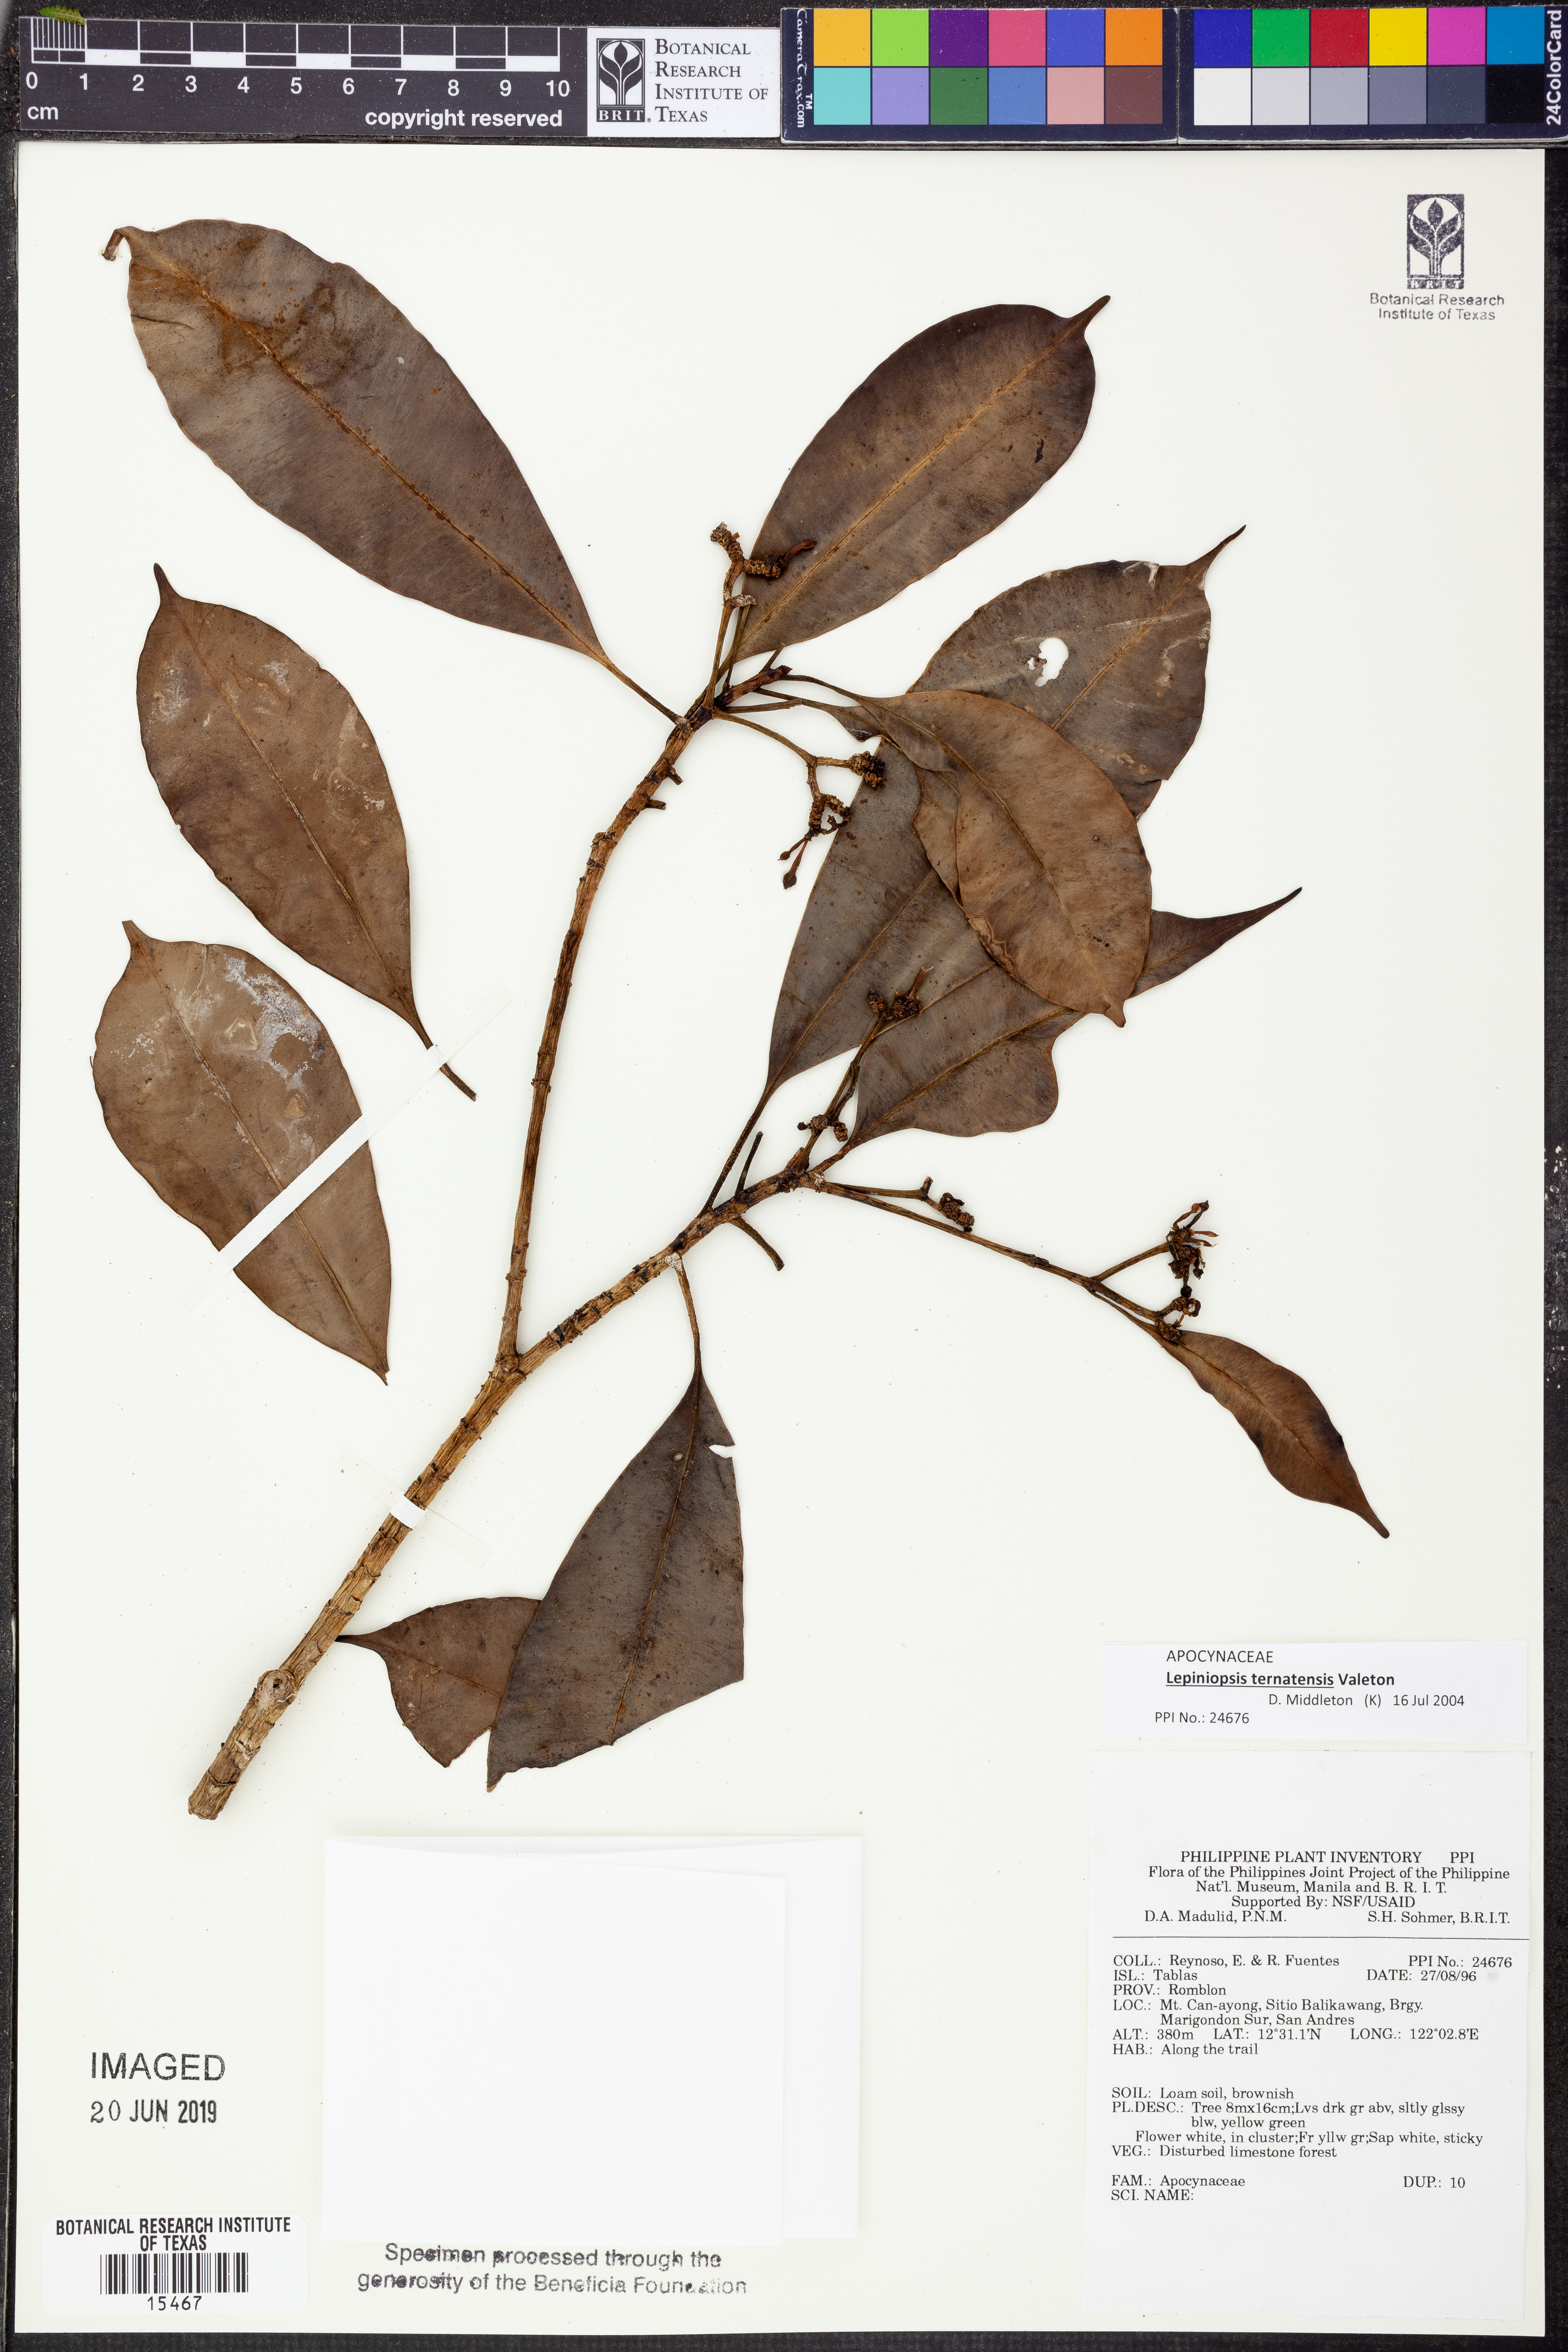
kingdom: Plantae
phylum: Tracheophyta
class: Magnoliopsida
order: Gentianales
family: Apocynaceae
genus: Lepiniopsis
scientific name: Lepiniopsis ternatensis
